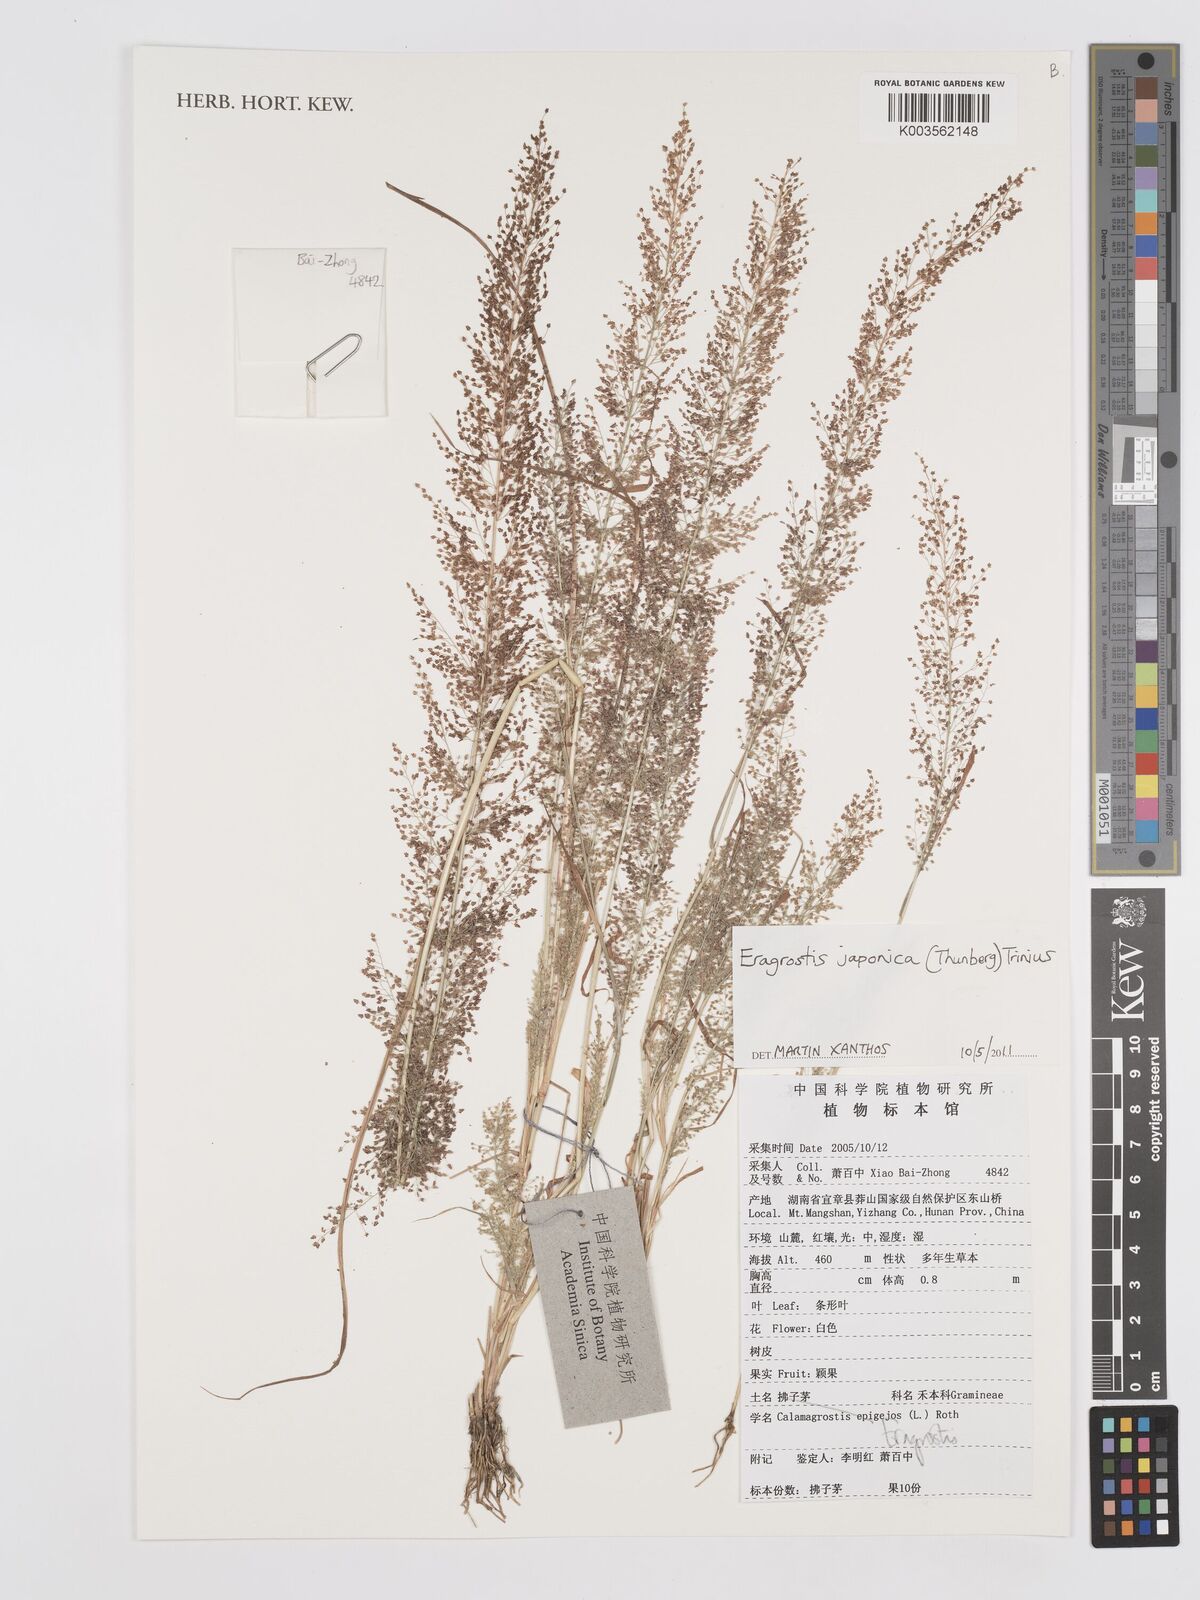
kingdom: Plantae
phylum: Tracheophyta
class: Liliopsida
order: Poales
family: Poaceae
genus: Eragrostis
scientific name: Eragrostis japonica
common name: Pond lovegrass
